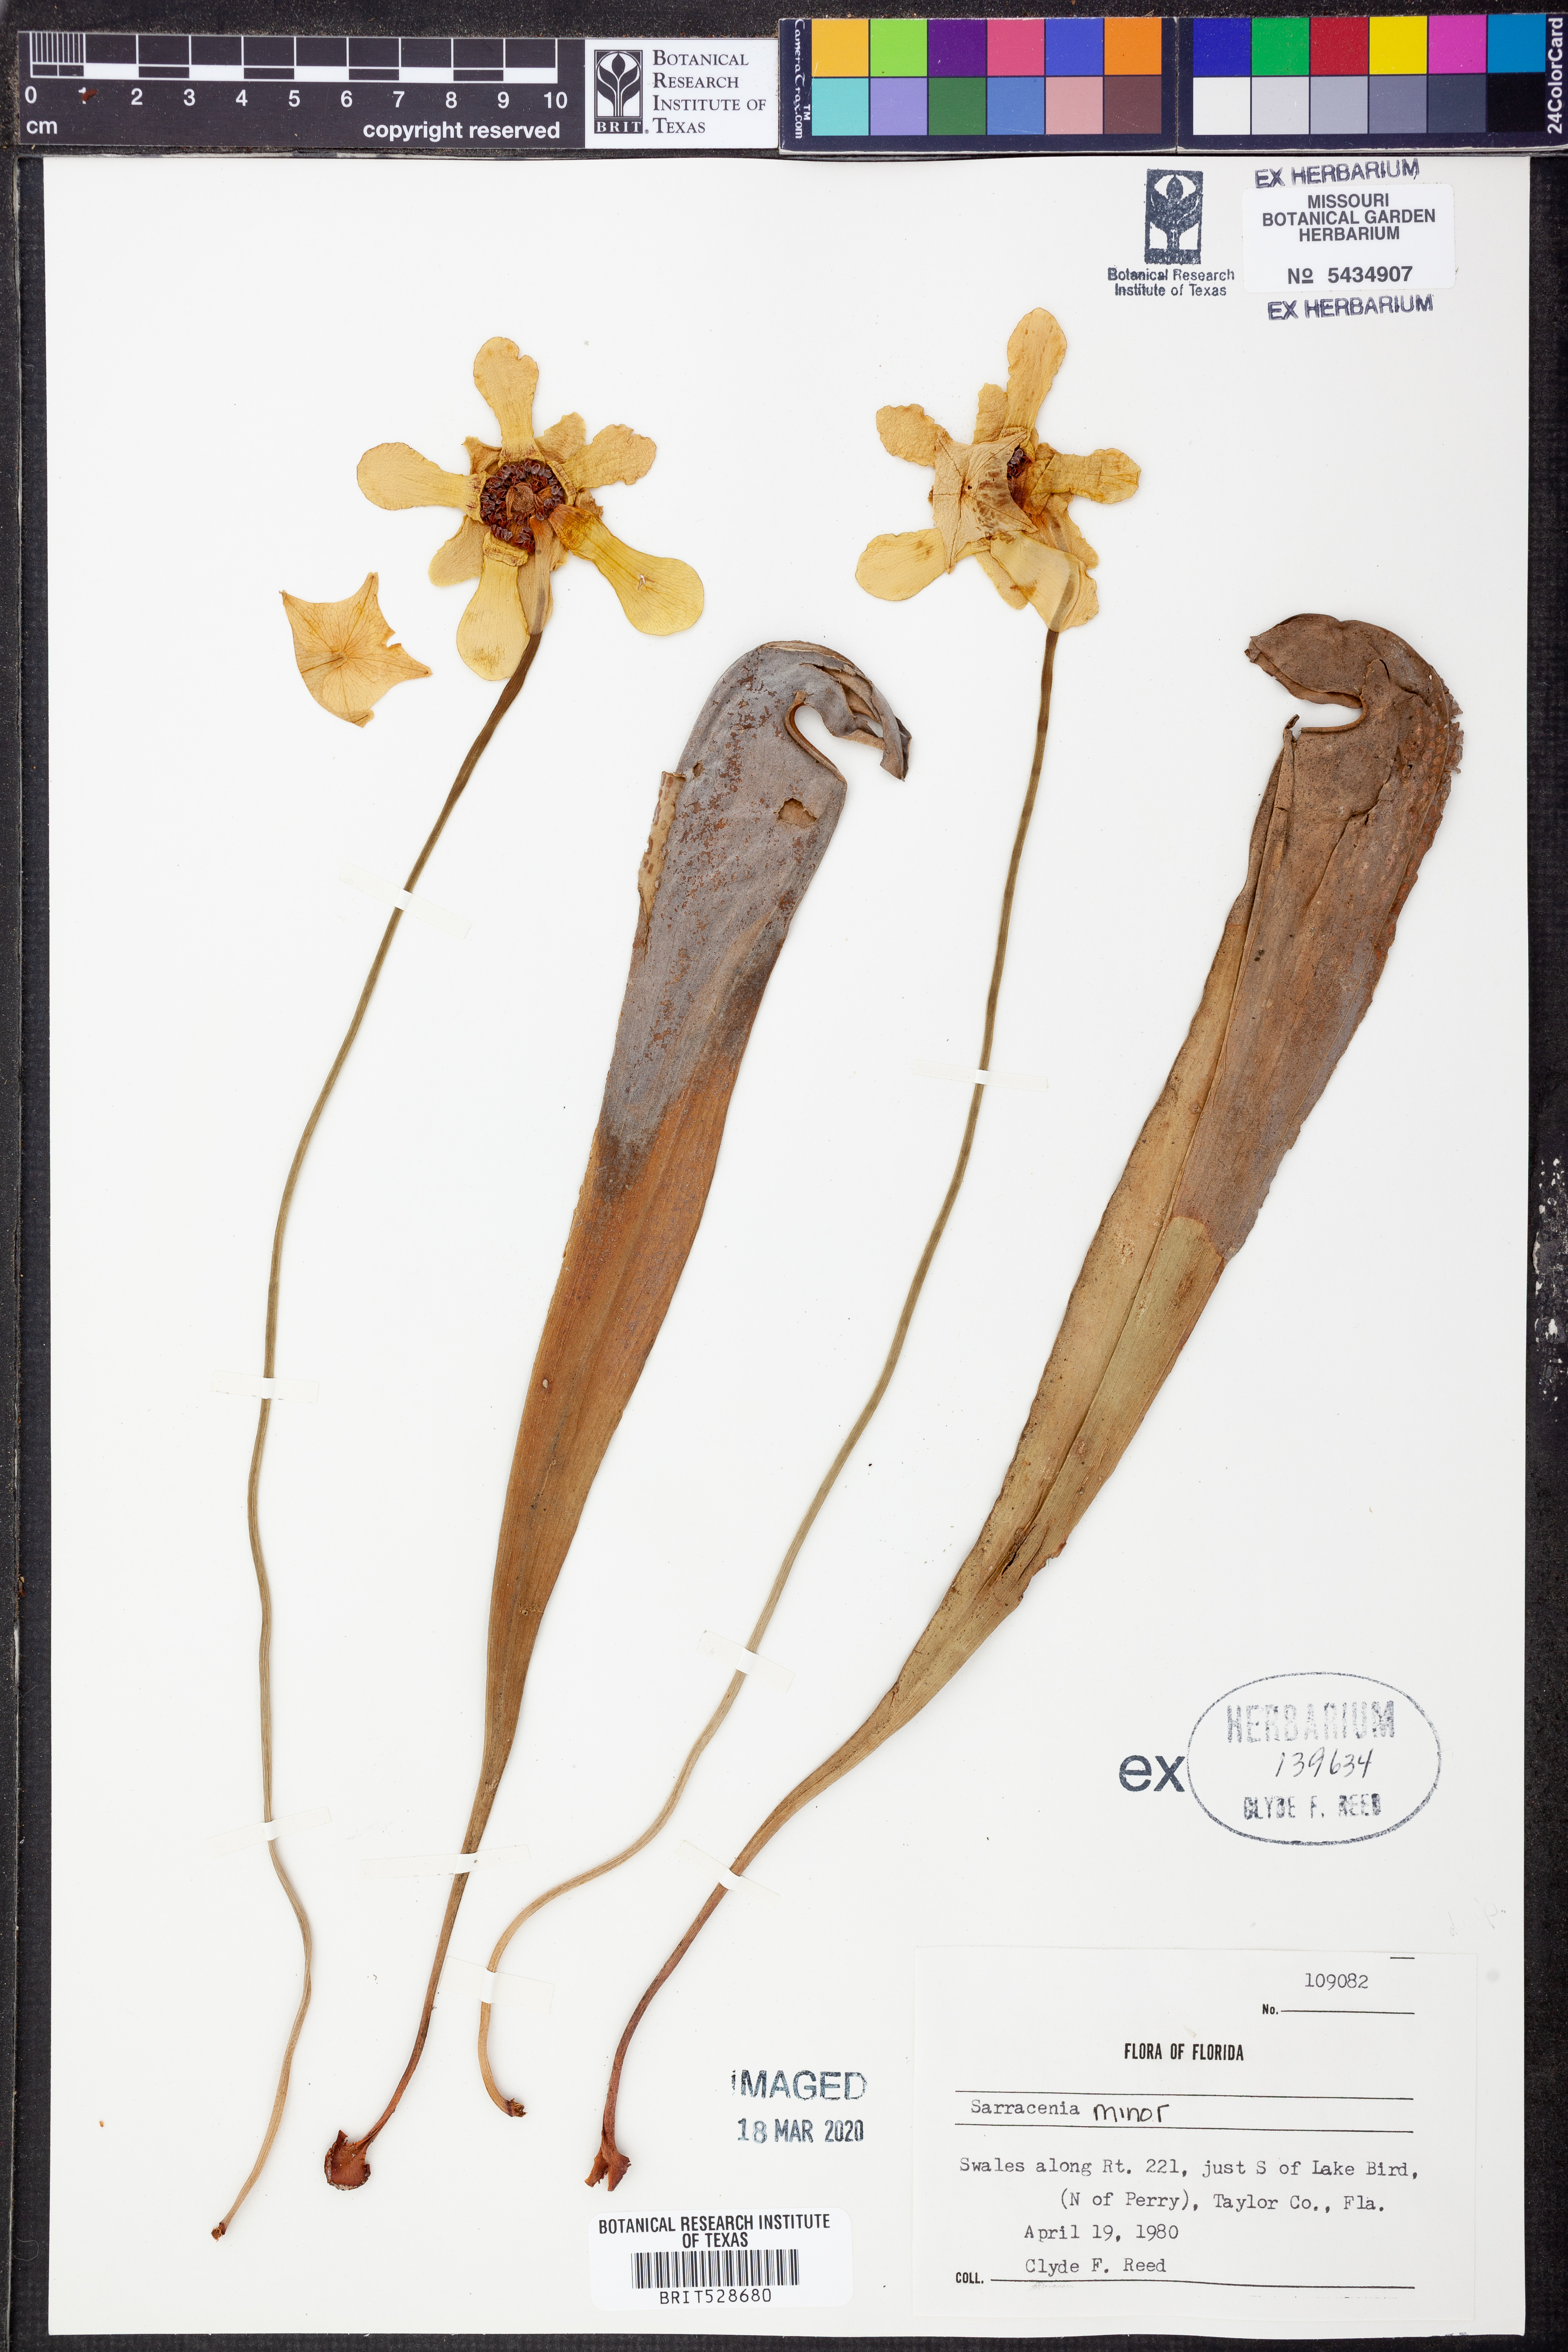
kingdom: Plantae
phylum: Tracheophyta
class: Magnoliopsida
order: Ericales
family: Sarraceniaceae
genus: Sarracenia
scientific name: Sarracenia minor
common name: Rainhat-trumpet
